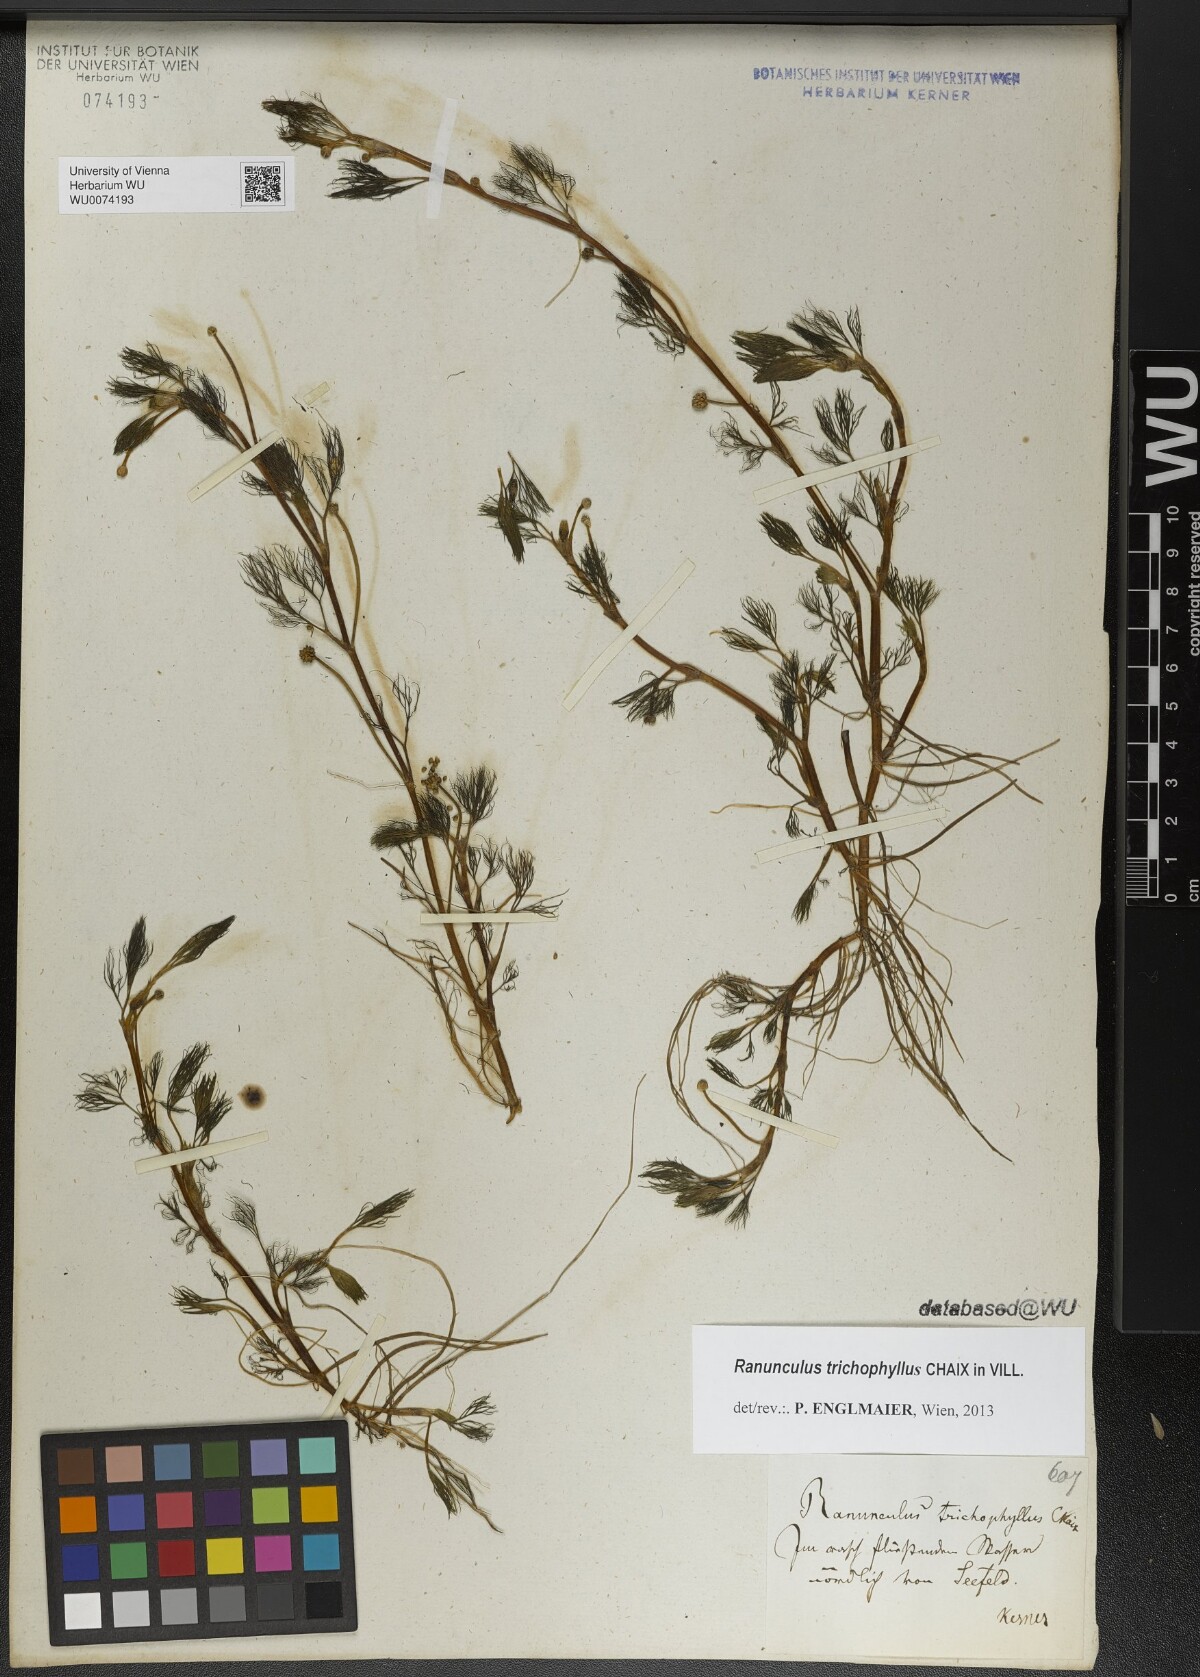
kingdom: Plantae
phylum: Tracheophyta
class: Magnoliopsida
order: Ranunculales
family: Ranunculaceae
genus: Ranunculus
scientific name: Ranunculus trichophyllus
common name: Thread-leaved water-crowfoot
